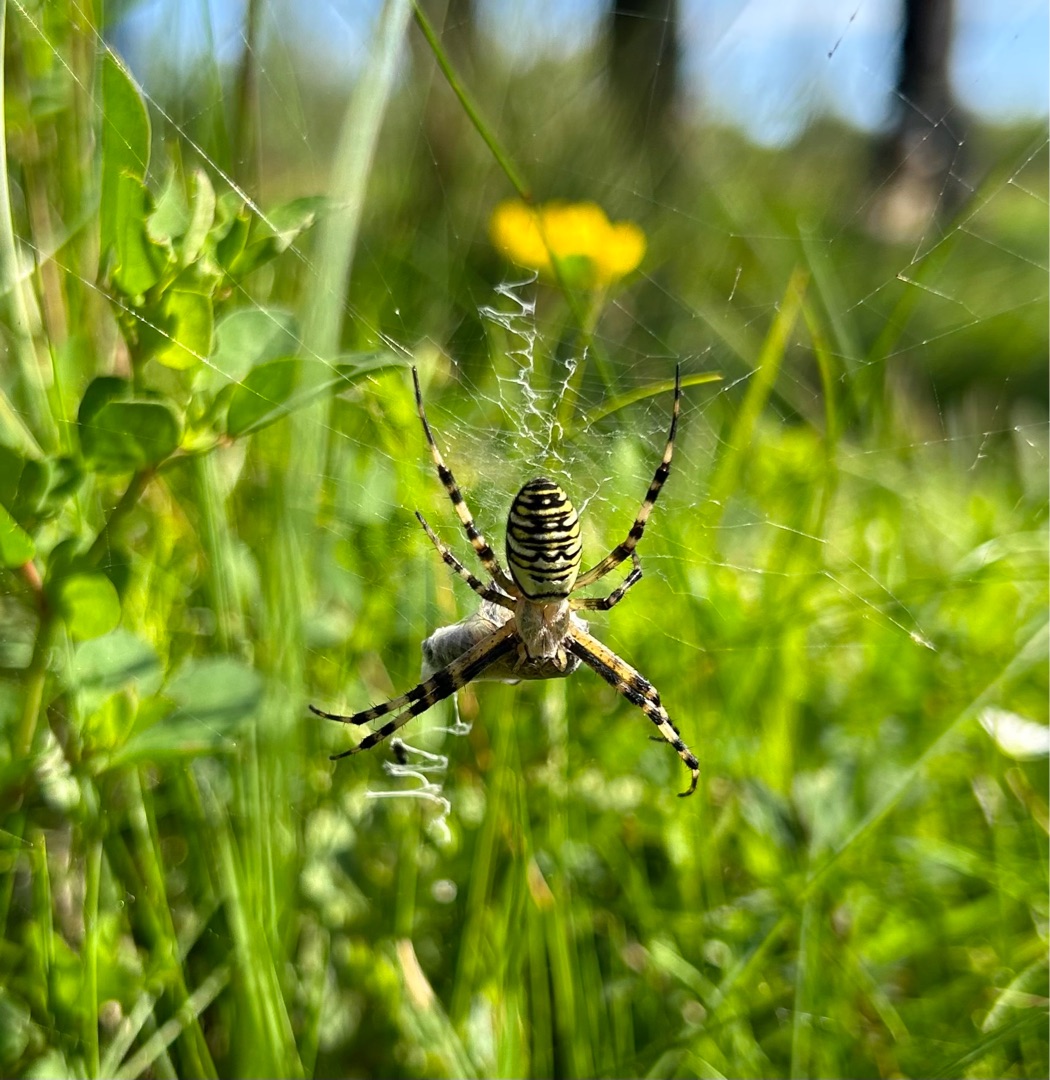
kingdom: Animalia
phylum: Arthropoda
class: Arachnida
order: Araneae
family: Araneidae
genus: Argiope
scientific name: Argiope bruennichi
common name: Hvepseedderkop
